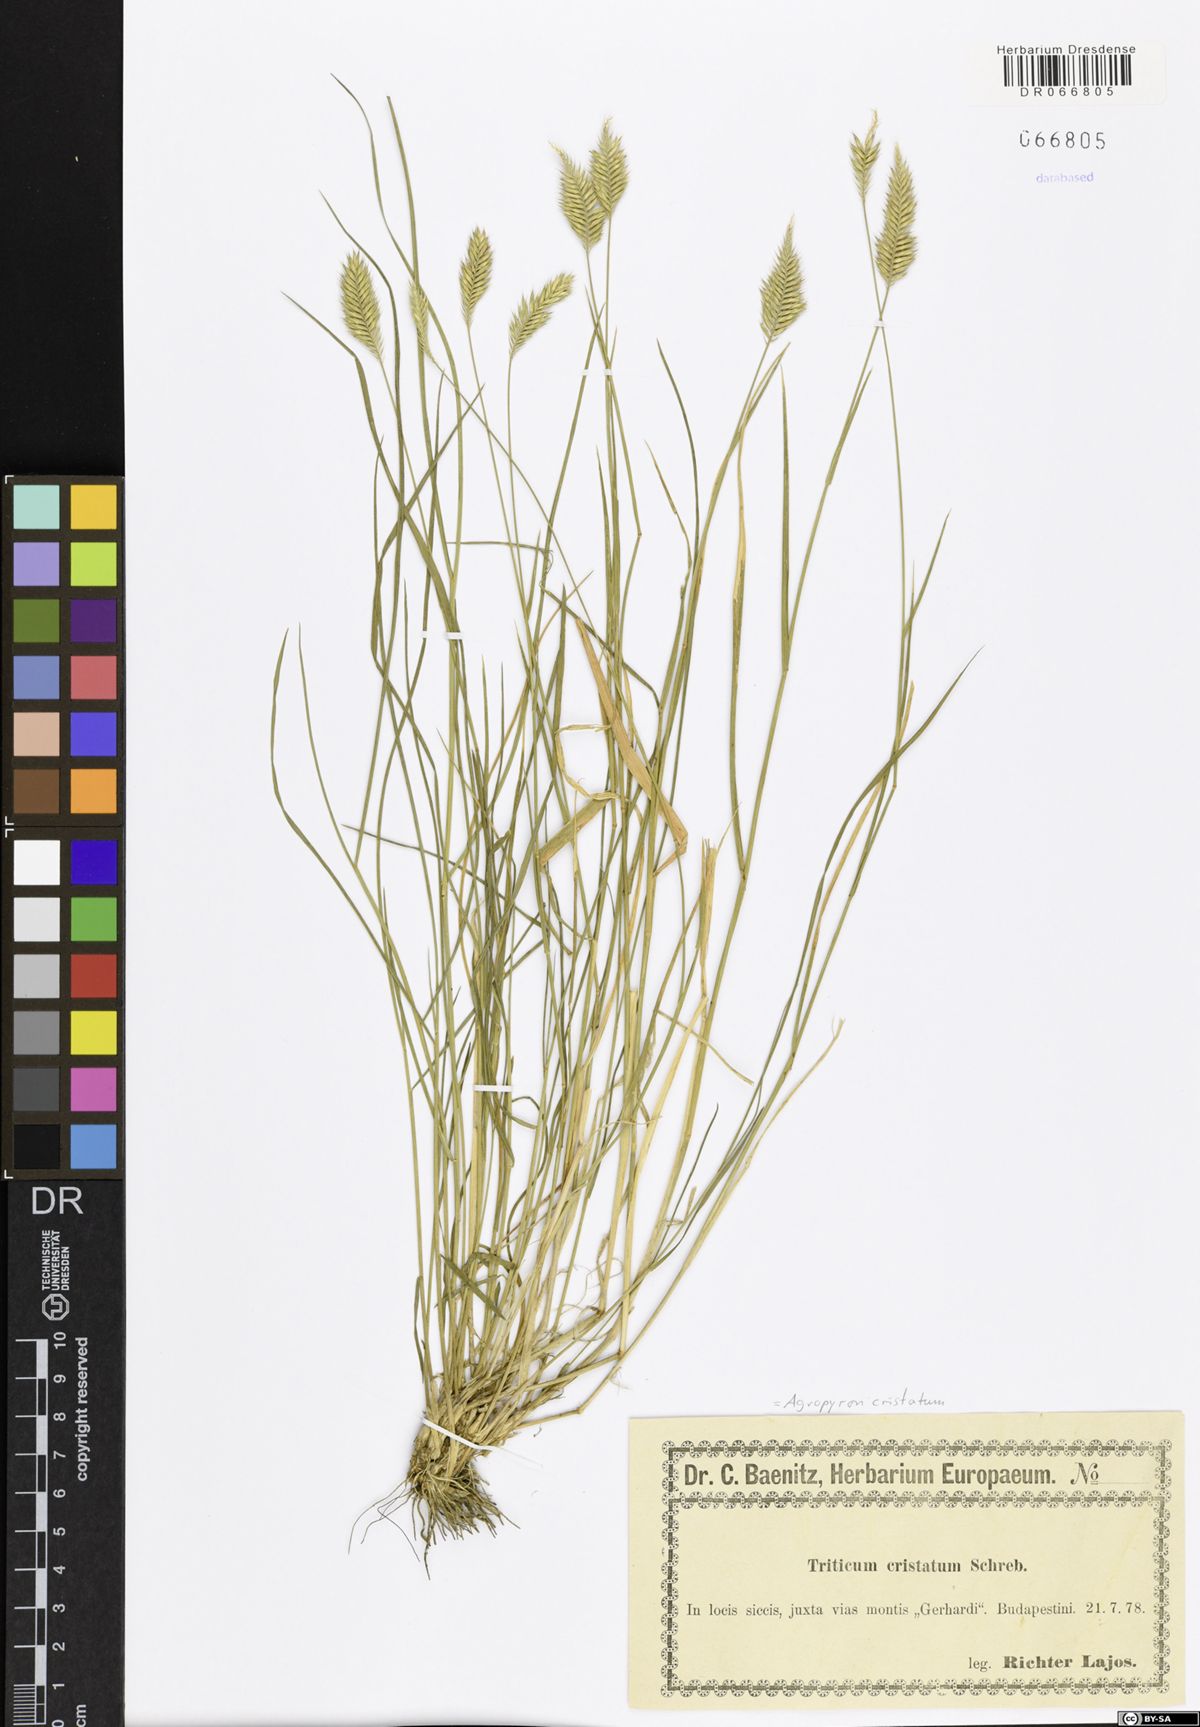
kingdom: Plantae
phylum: Tracheophyta
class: Liliopsida
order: Poales
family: Poaceae
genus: Agropyron
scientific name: Agropyron cristatum
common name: Crested wheatgrass
